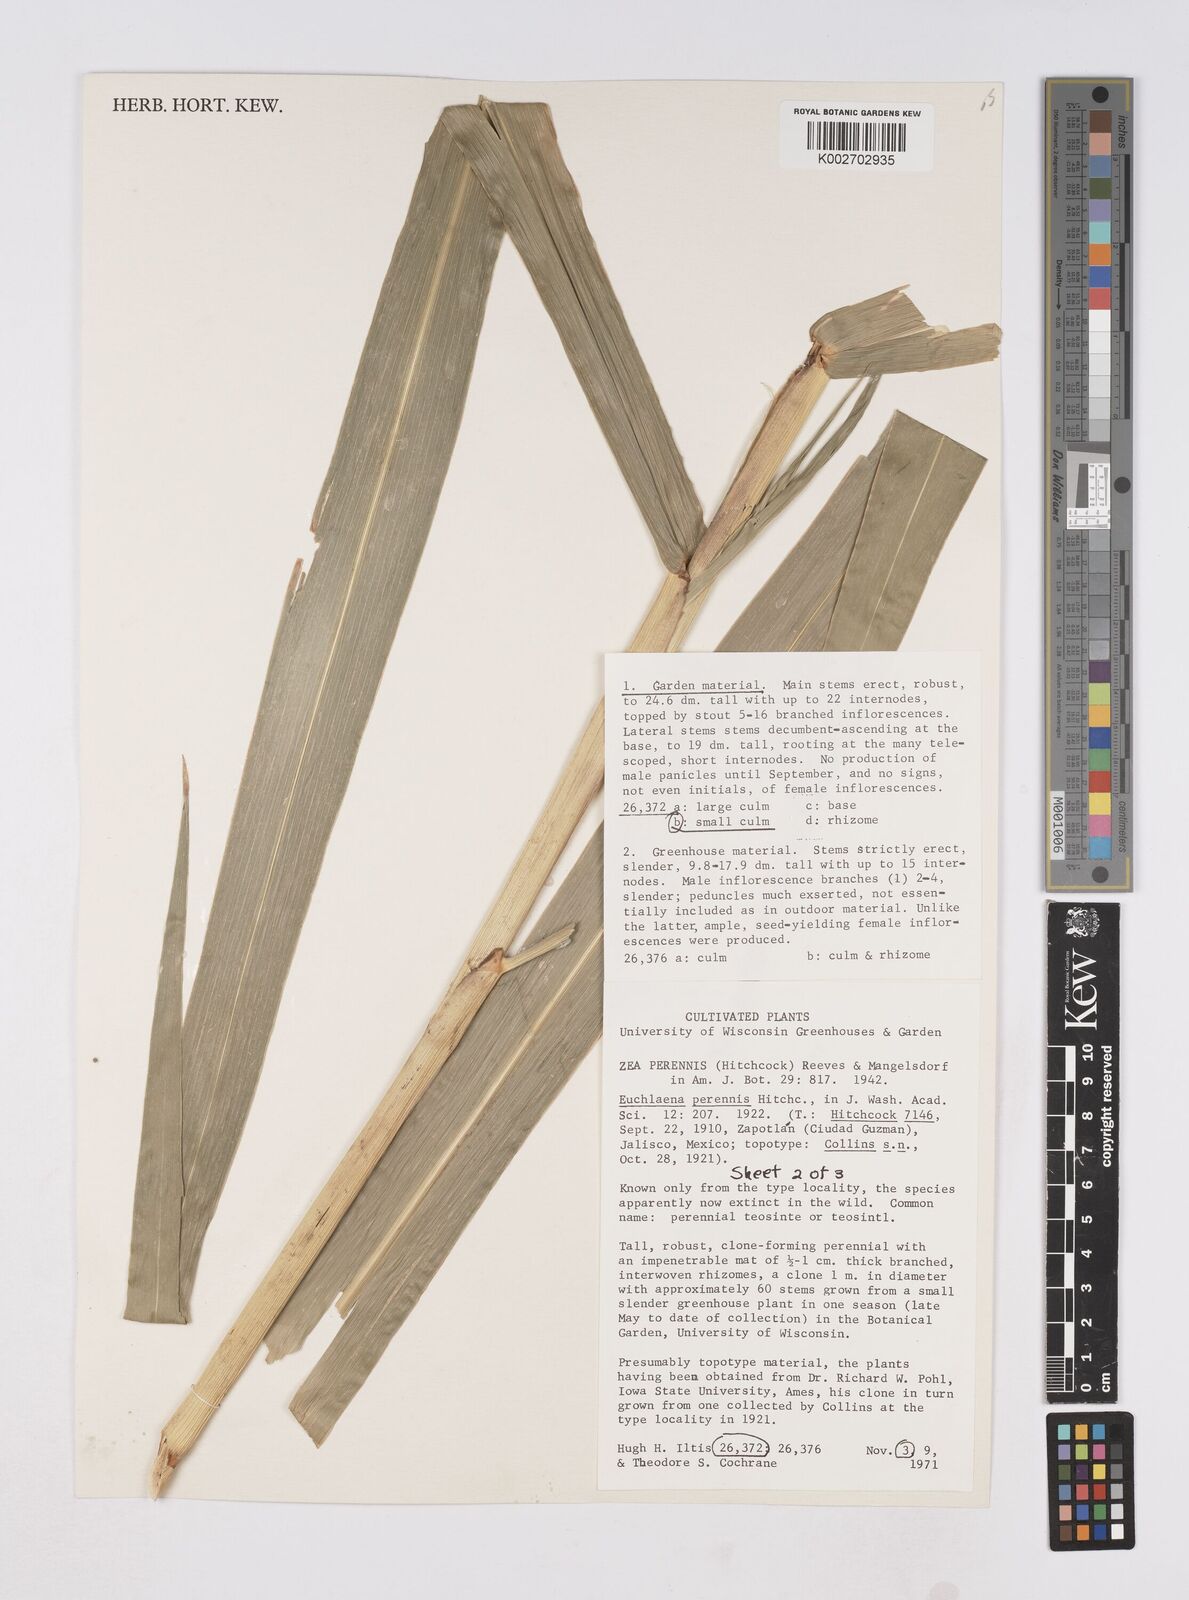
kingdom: Plantae
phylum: Tracheophyta
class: Liliopsida
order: Poales
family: Poaceae
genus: Zea
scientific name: Zea perennis
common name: Perennial teosinte
